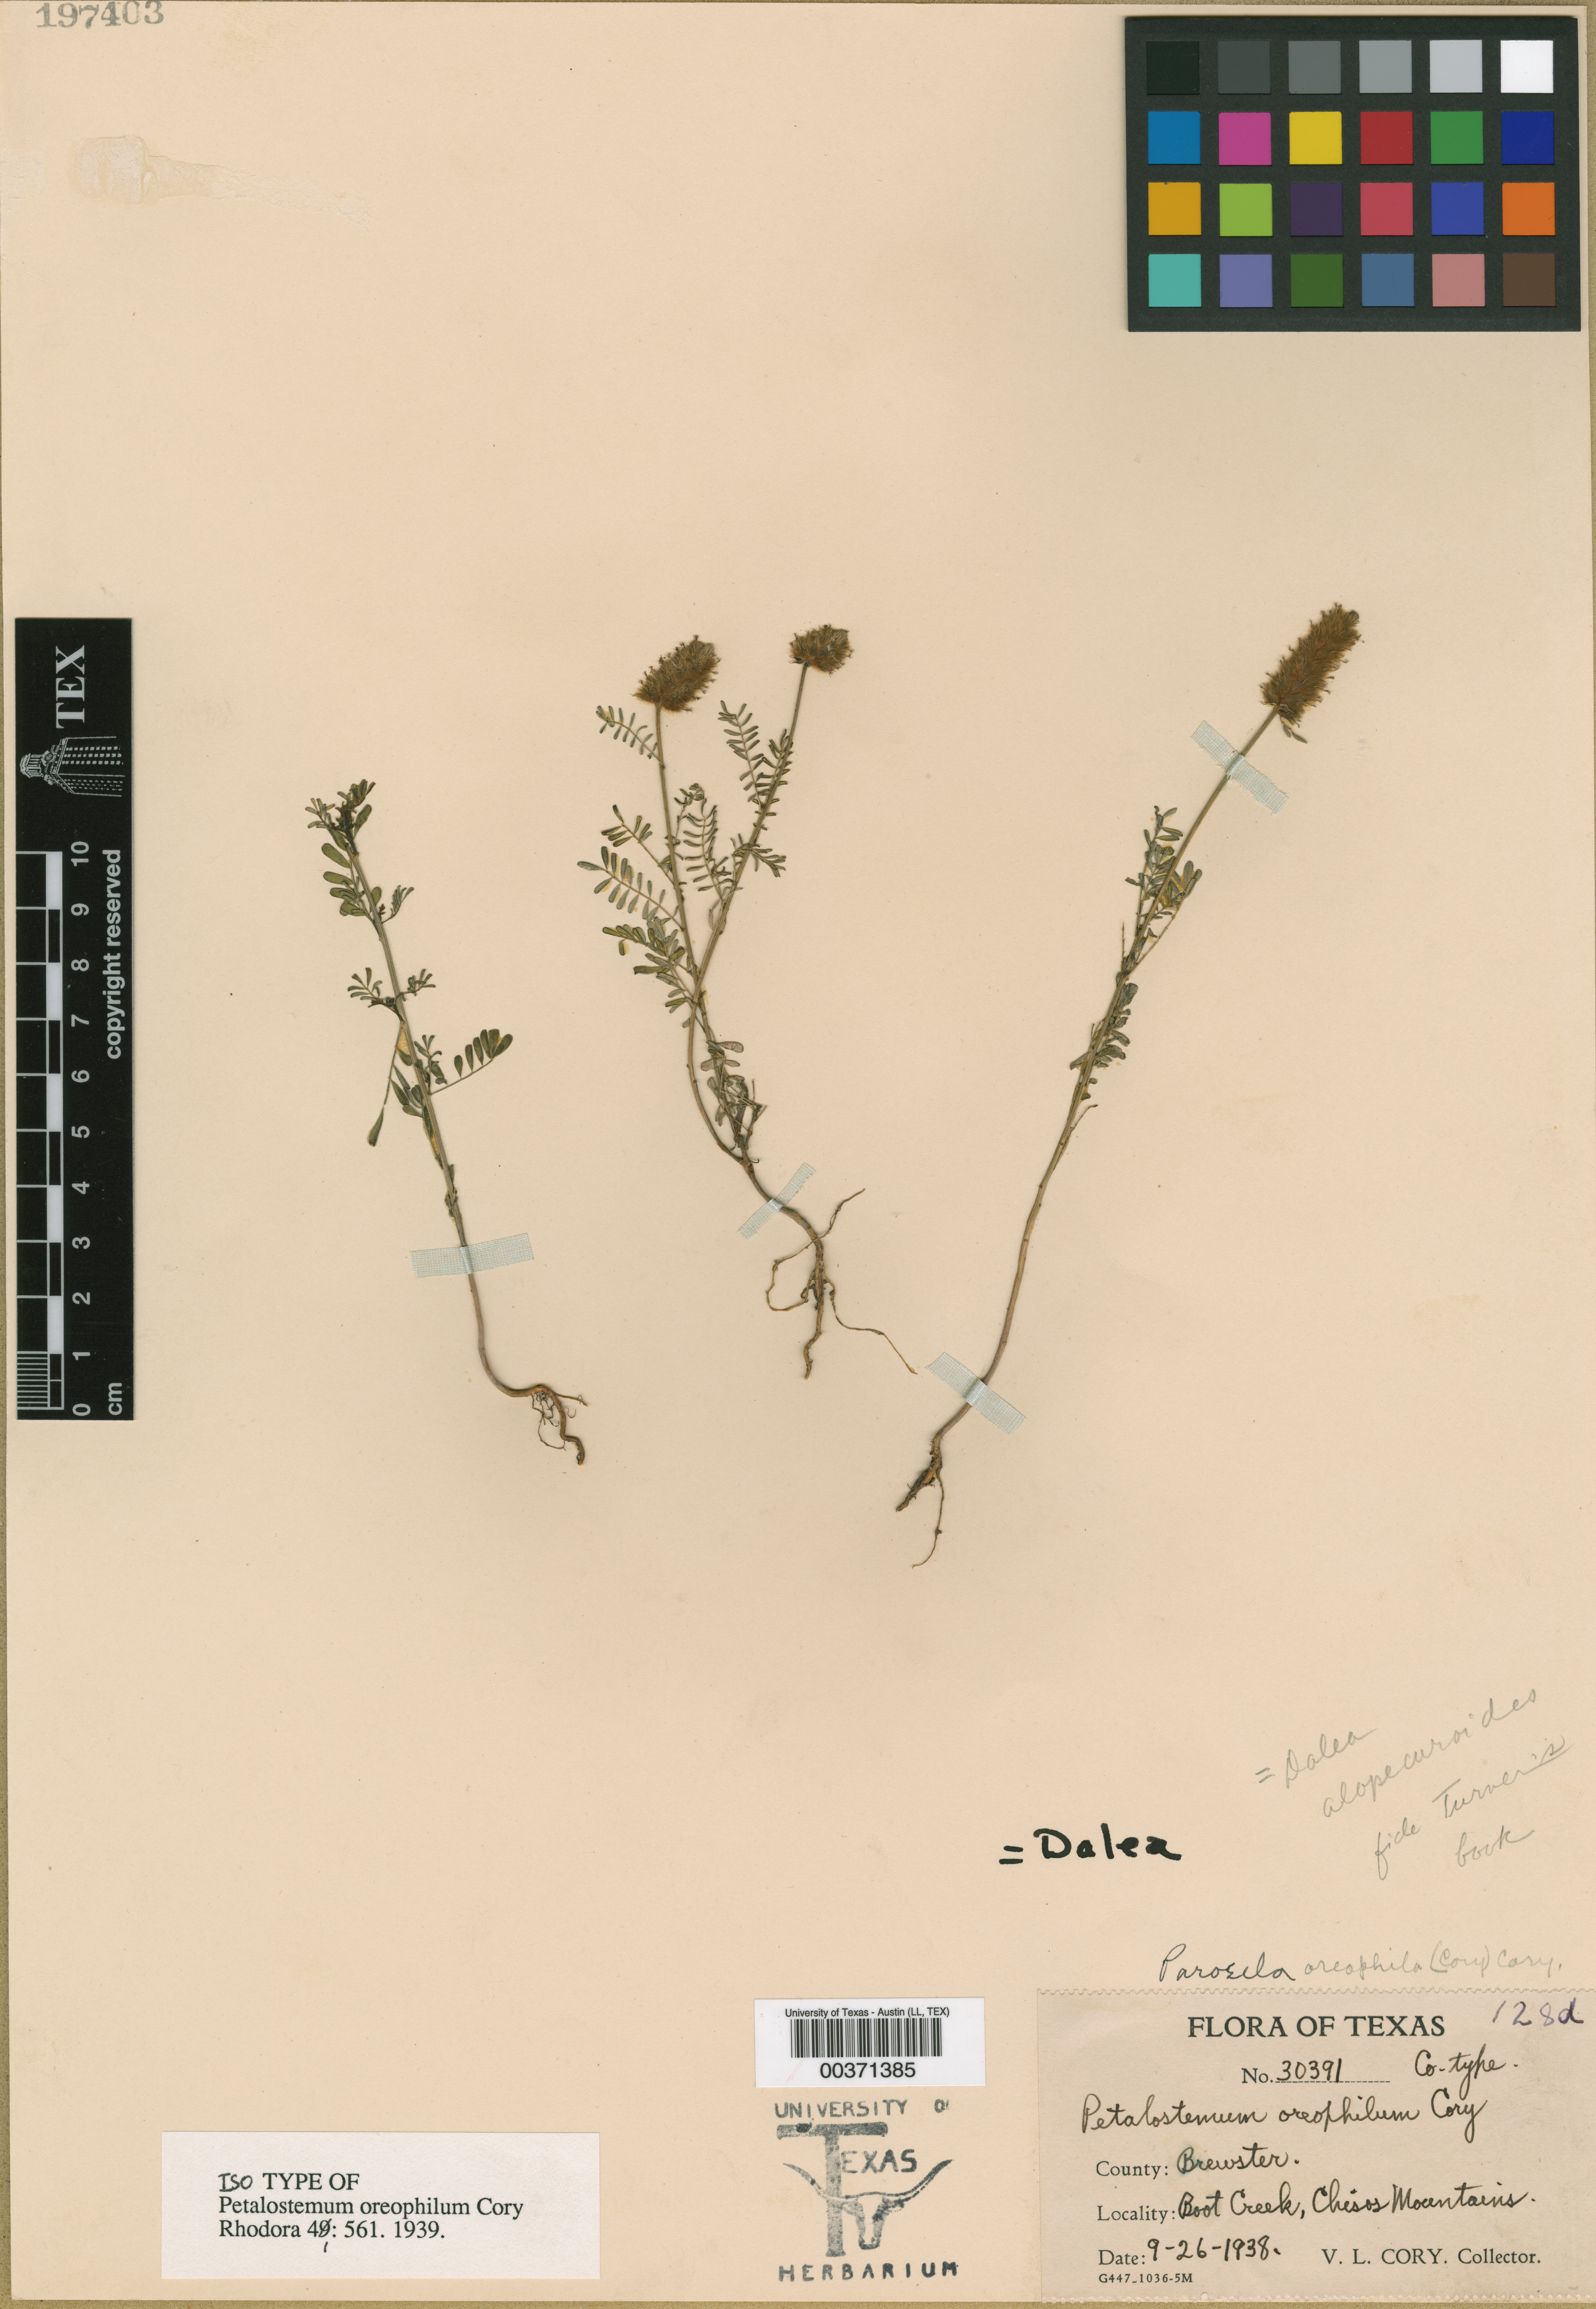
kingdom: Plantae
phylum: Tracheophyta
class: Magnoliopsida
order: Fabales
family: Fabaceae
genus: Dalea
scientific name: Dalea leporina
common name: Foxtail dalea
